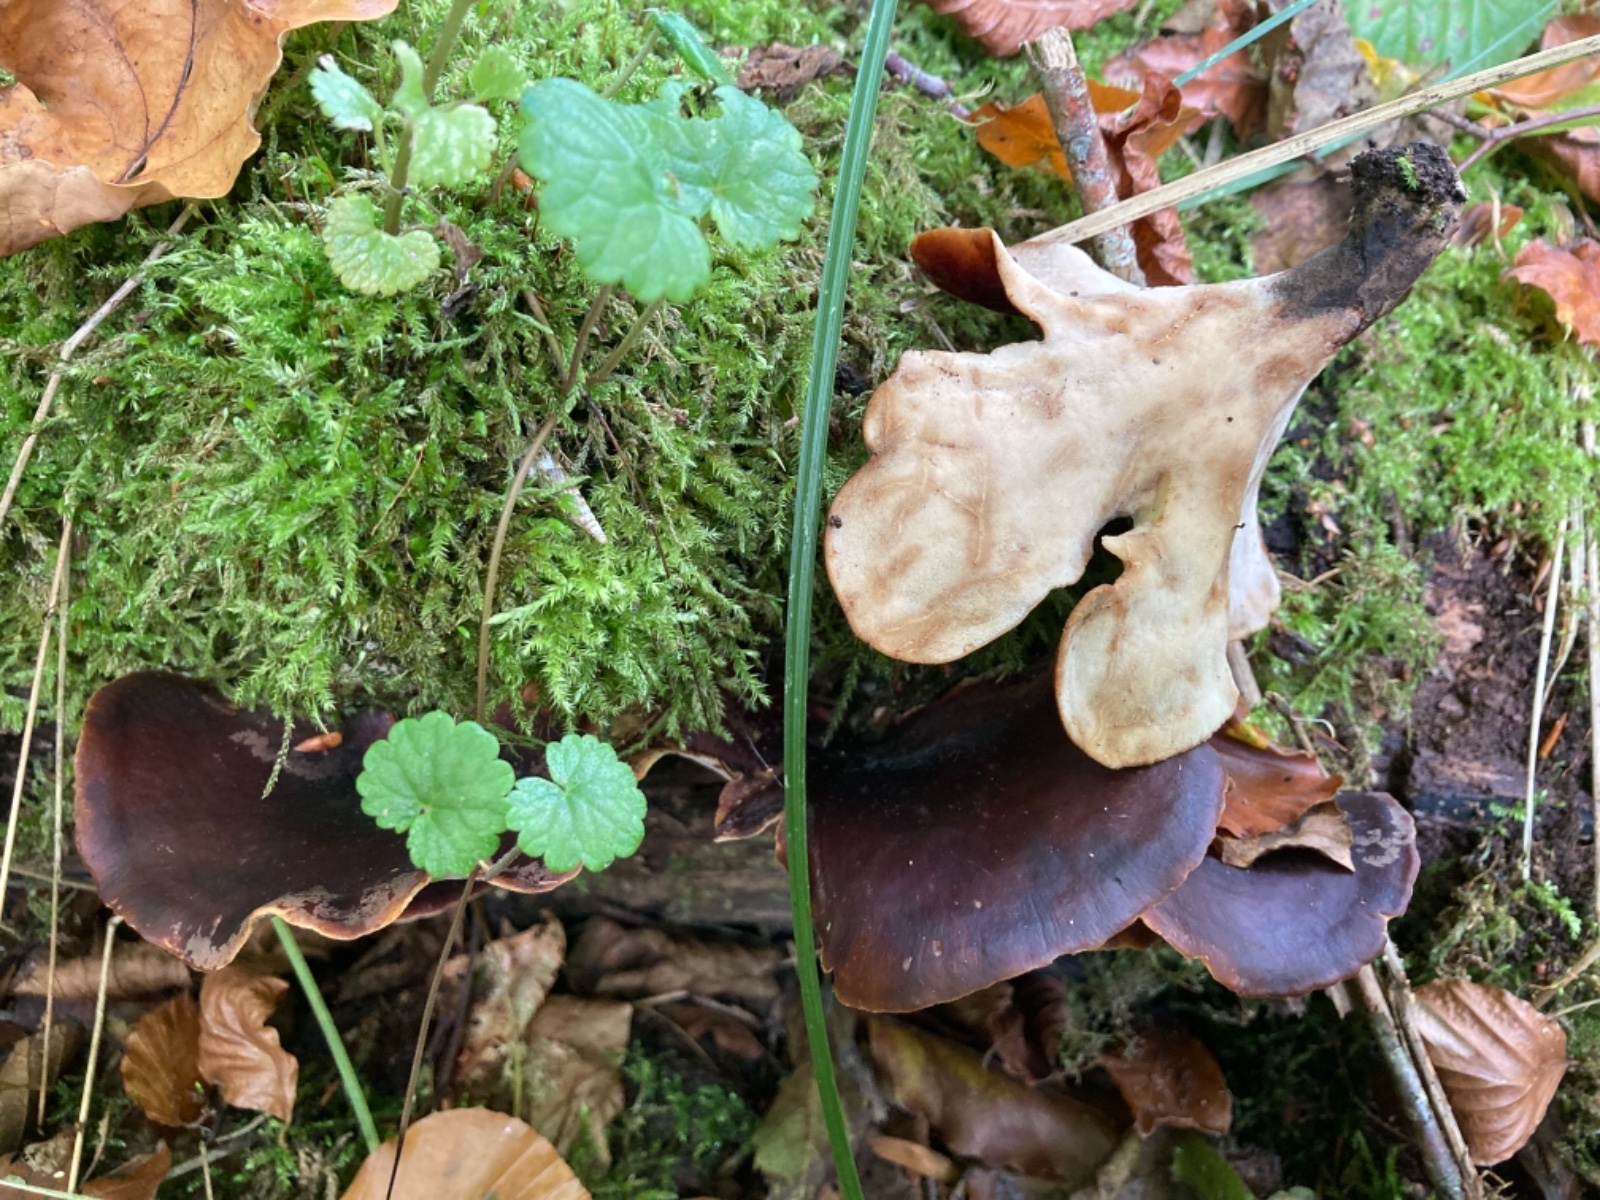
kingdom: Fungi
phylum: Basidiomycota
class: Agaricomycetes
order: Polyporales
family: Polyporaceae
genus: Picipes
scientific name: Picipes badius
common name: kastaniebrun stilkporesvamp
